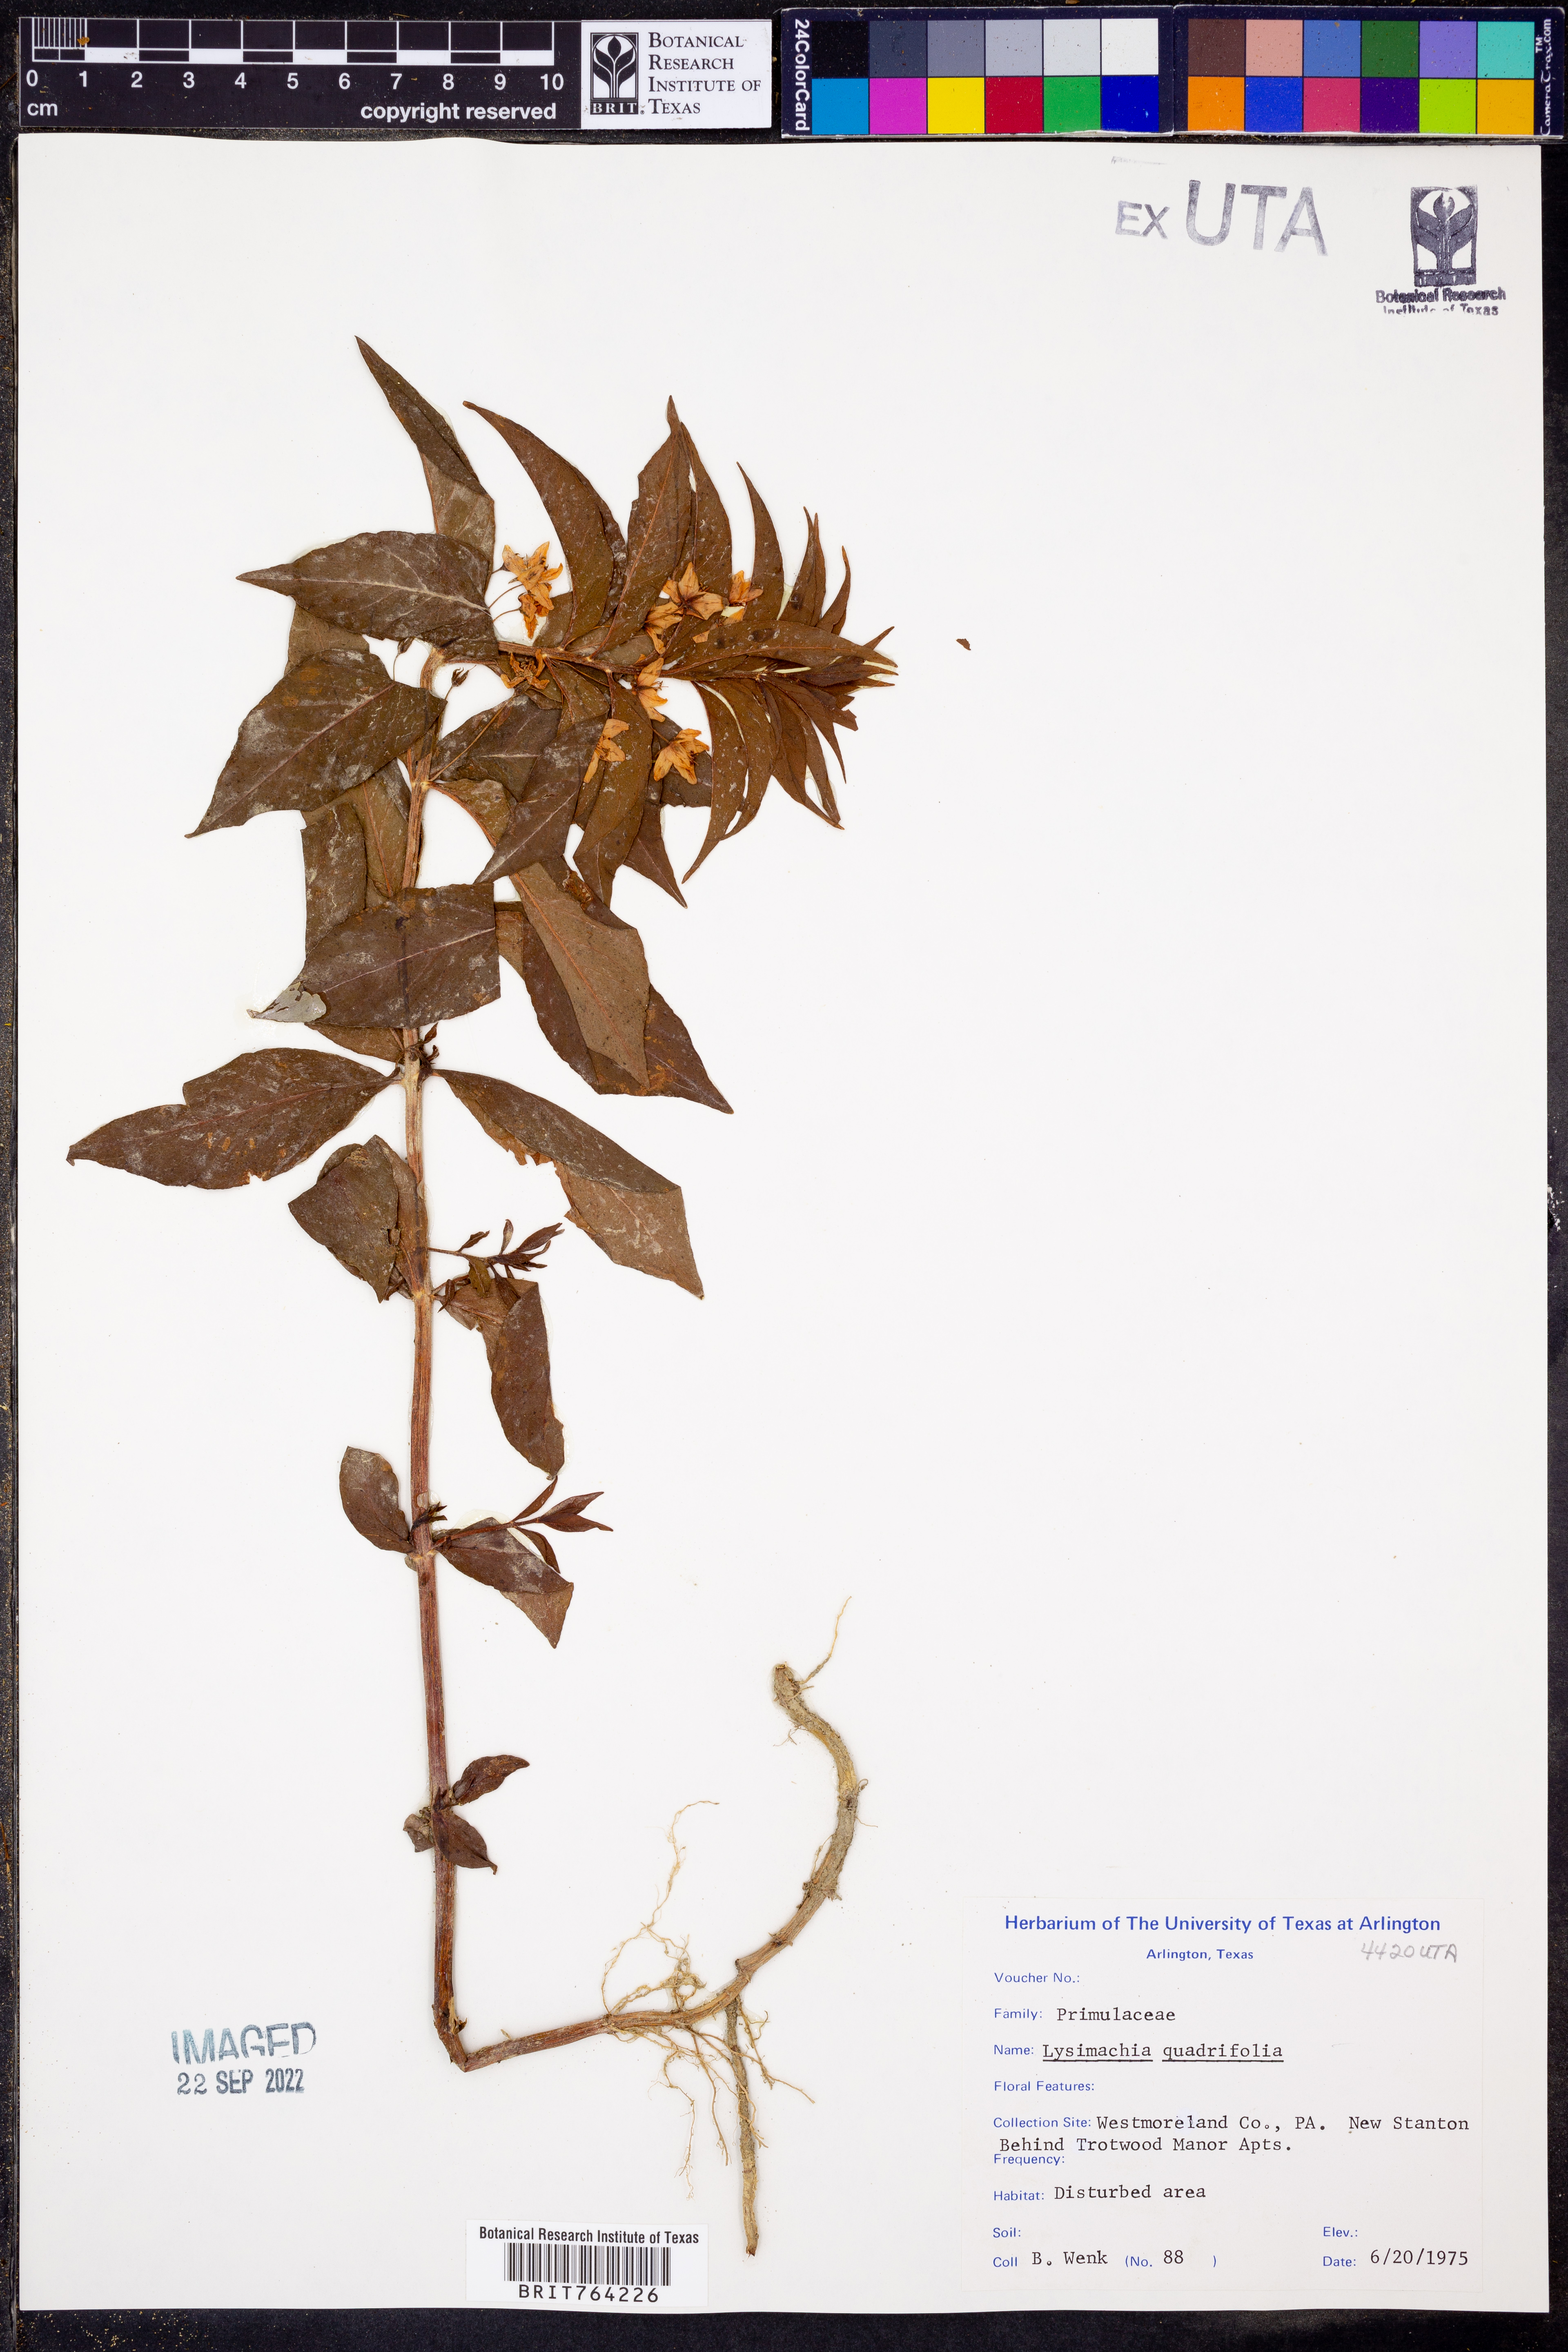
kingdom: Plantae
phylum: Tracheophyta
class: Magnoliopsida
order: Ericales
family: Primulaceae
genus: Lysimachia
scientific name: Lysimachia quadriflora
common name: Four-flowered loosestrife
